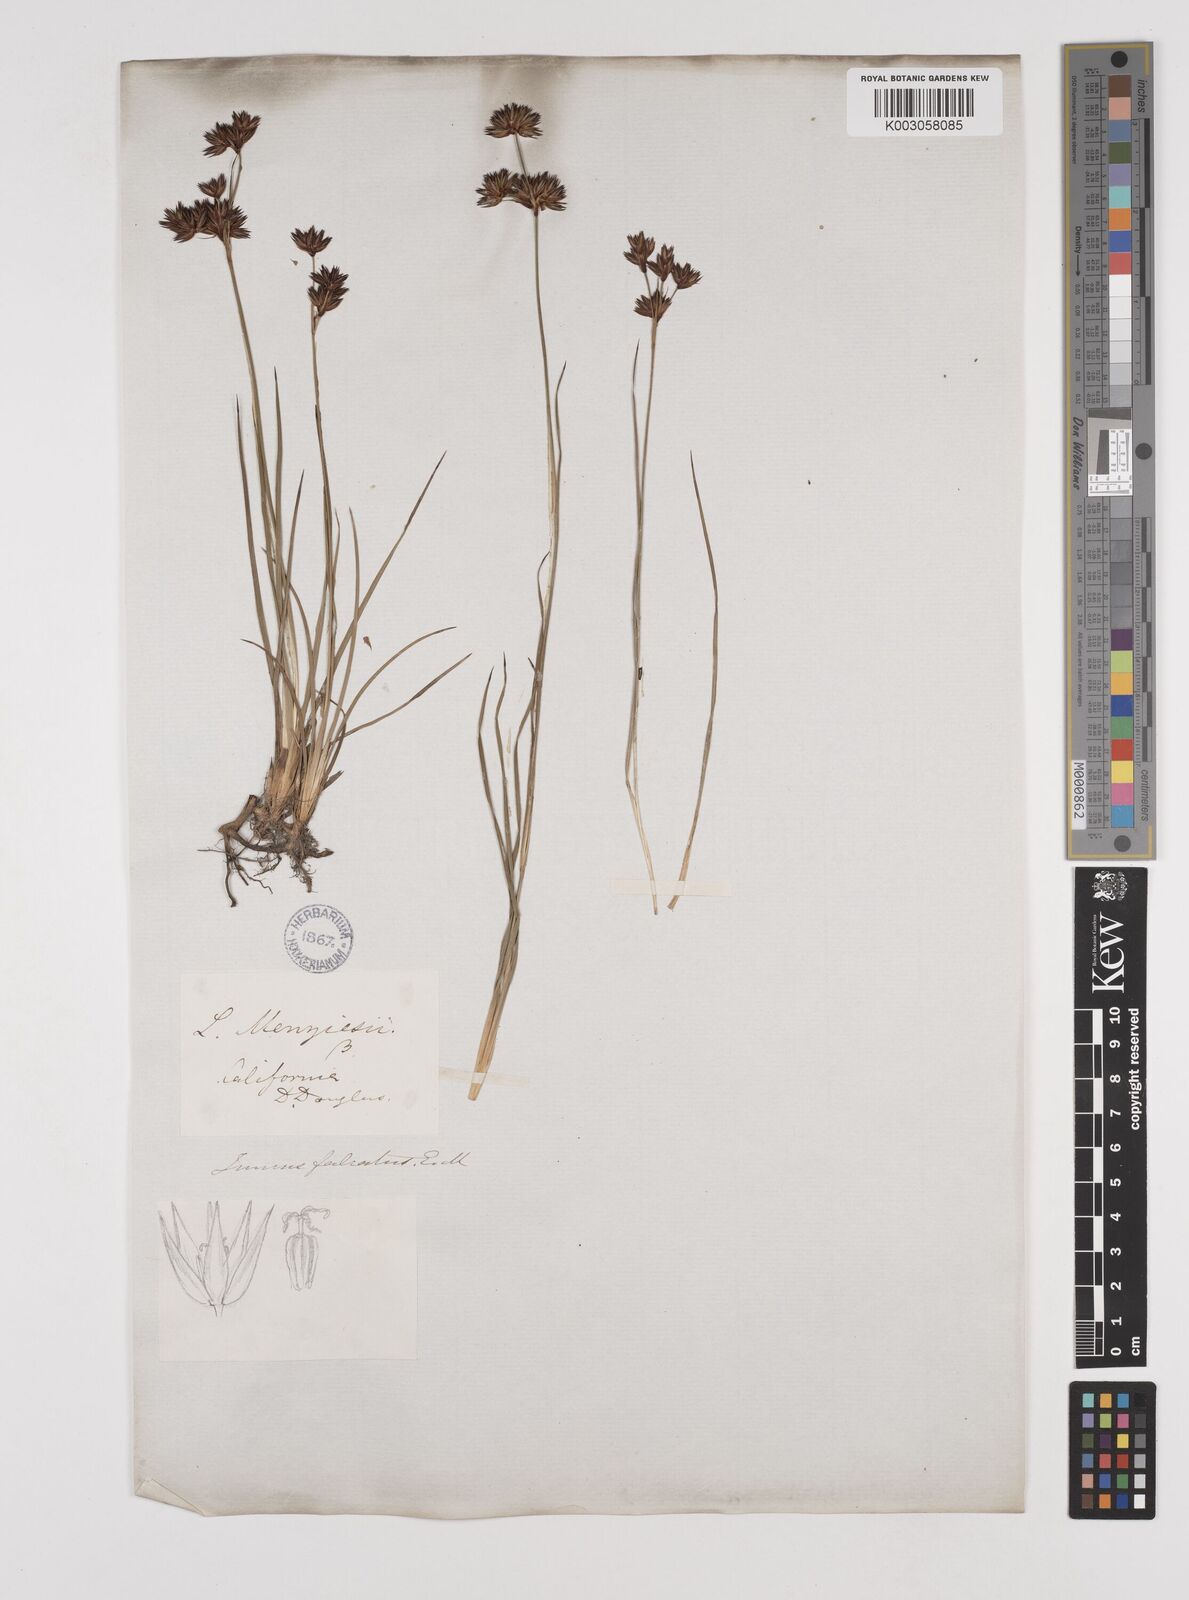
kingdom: Plantae
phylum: Tracheophyta
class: Liliopsida
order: Poales
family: Juncaceae
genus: Juncus
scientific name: Juncus falcatus
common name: Sickle-leaf rush
